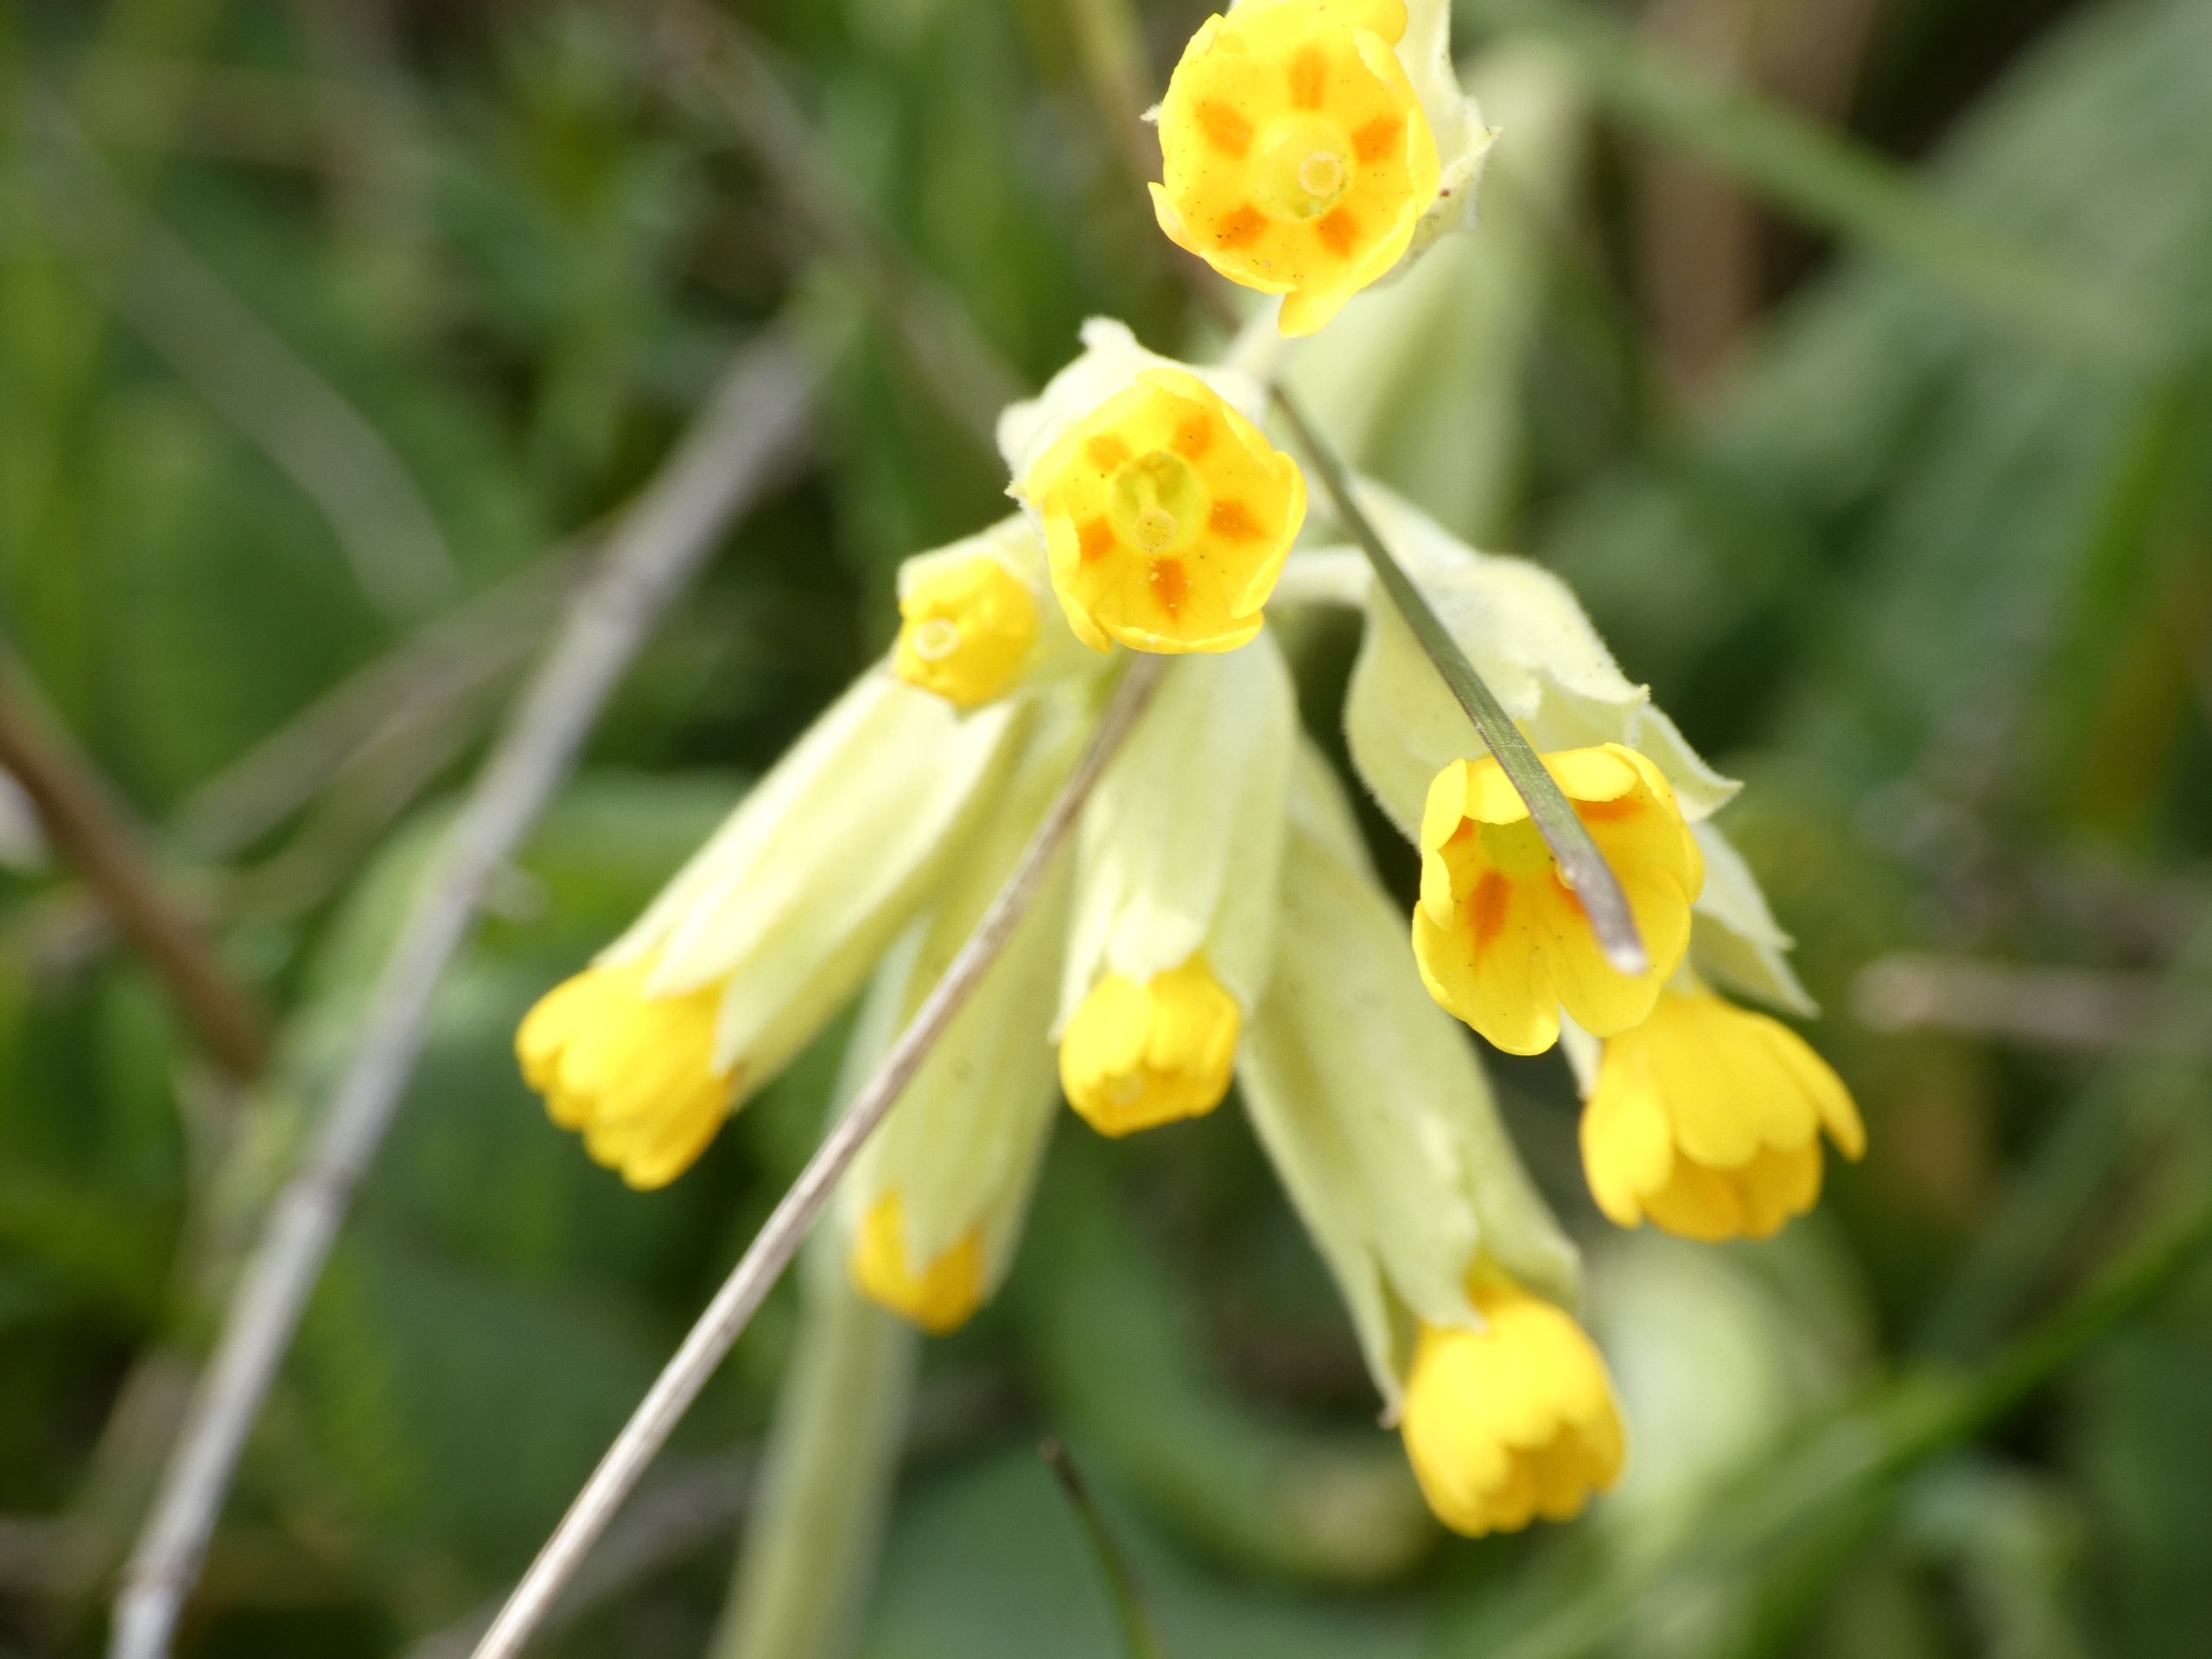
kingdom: Plantae
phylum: Tracheophyta
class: Magnoliopsida
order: Ericales
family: Primulaceae
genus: Primula
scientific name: Primula veris
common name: Hulkravet kodriver
